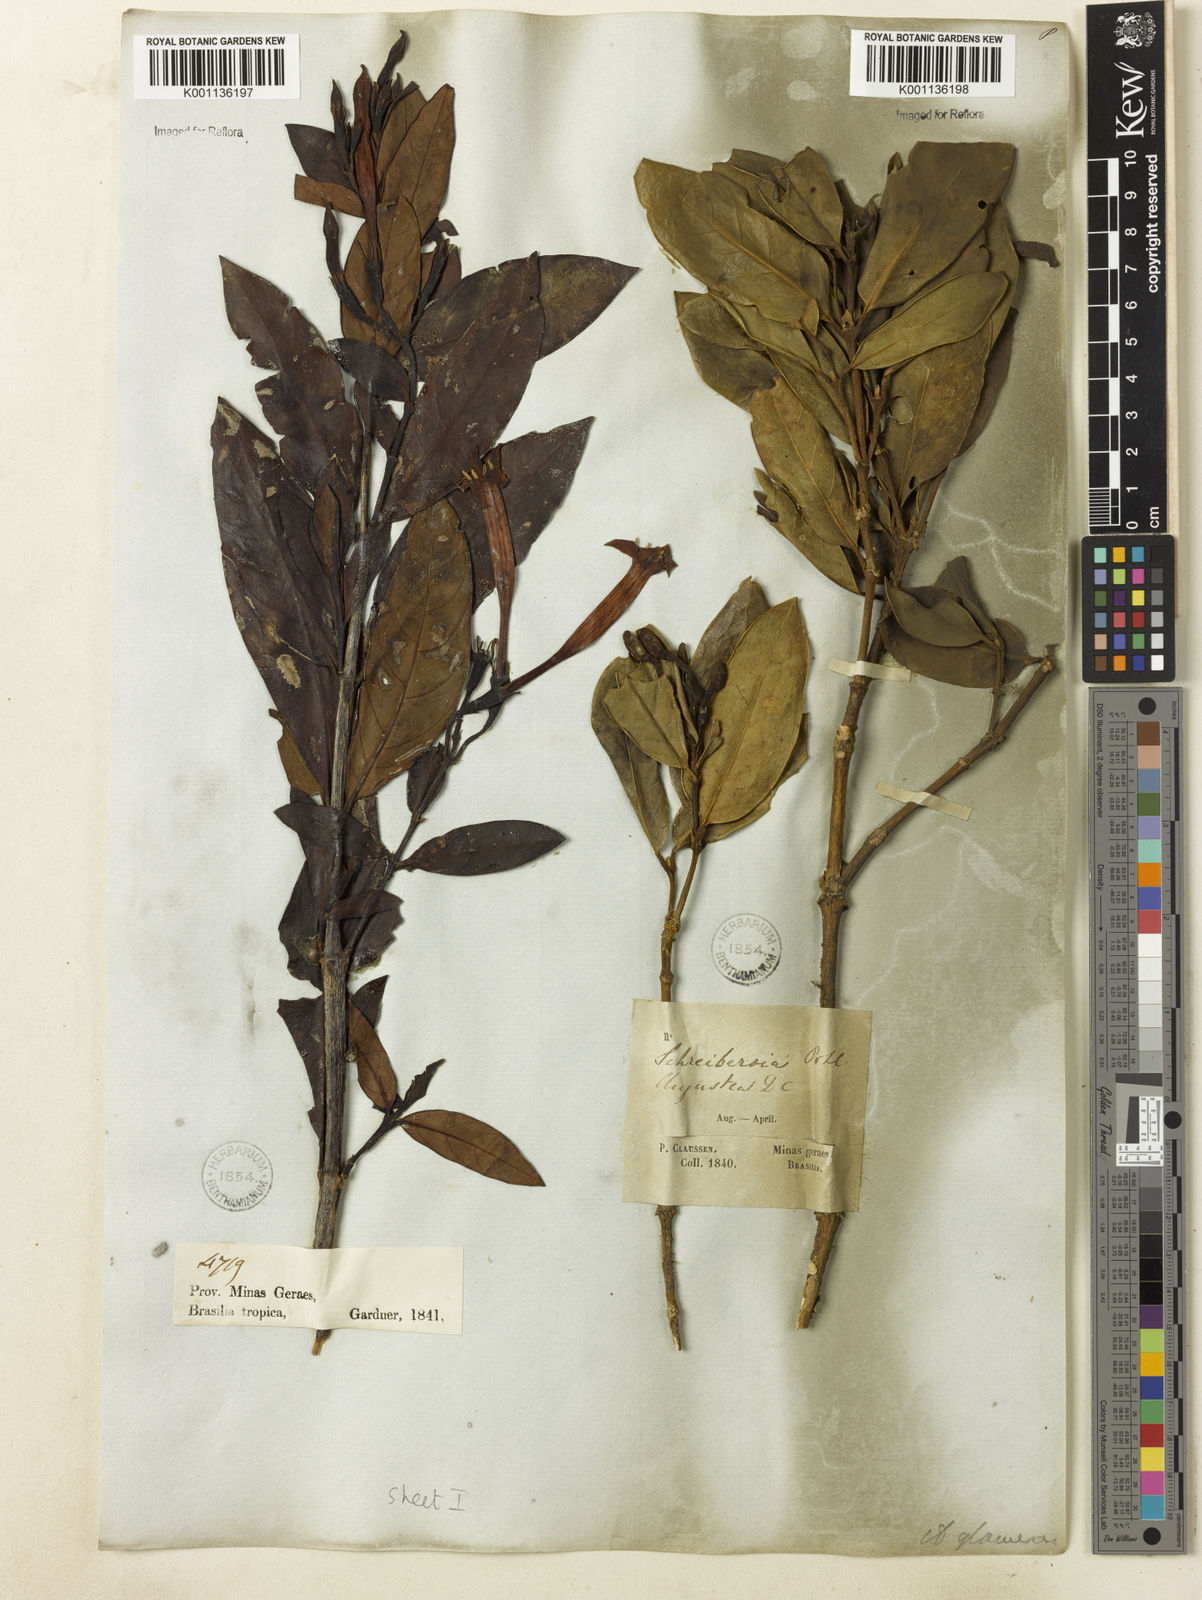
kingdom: Plantae
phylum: Tracheophyta
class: Magnoliopsida
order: Gentianales
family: Rubiaceae
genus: Augusta
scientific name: Augusta longifolia
